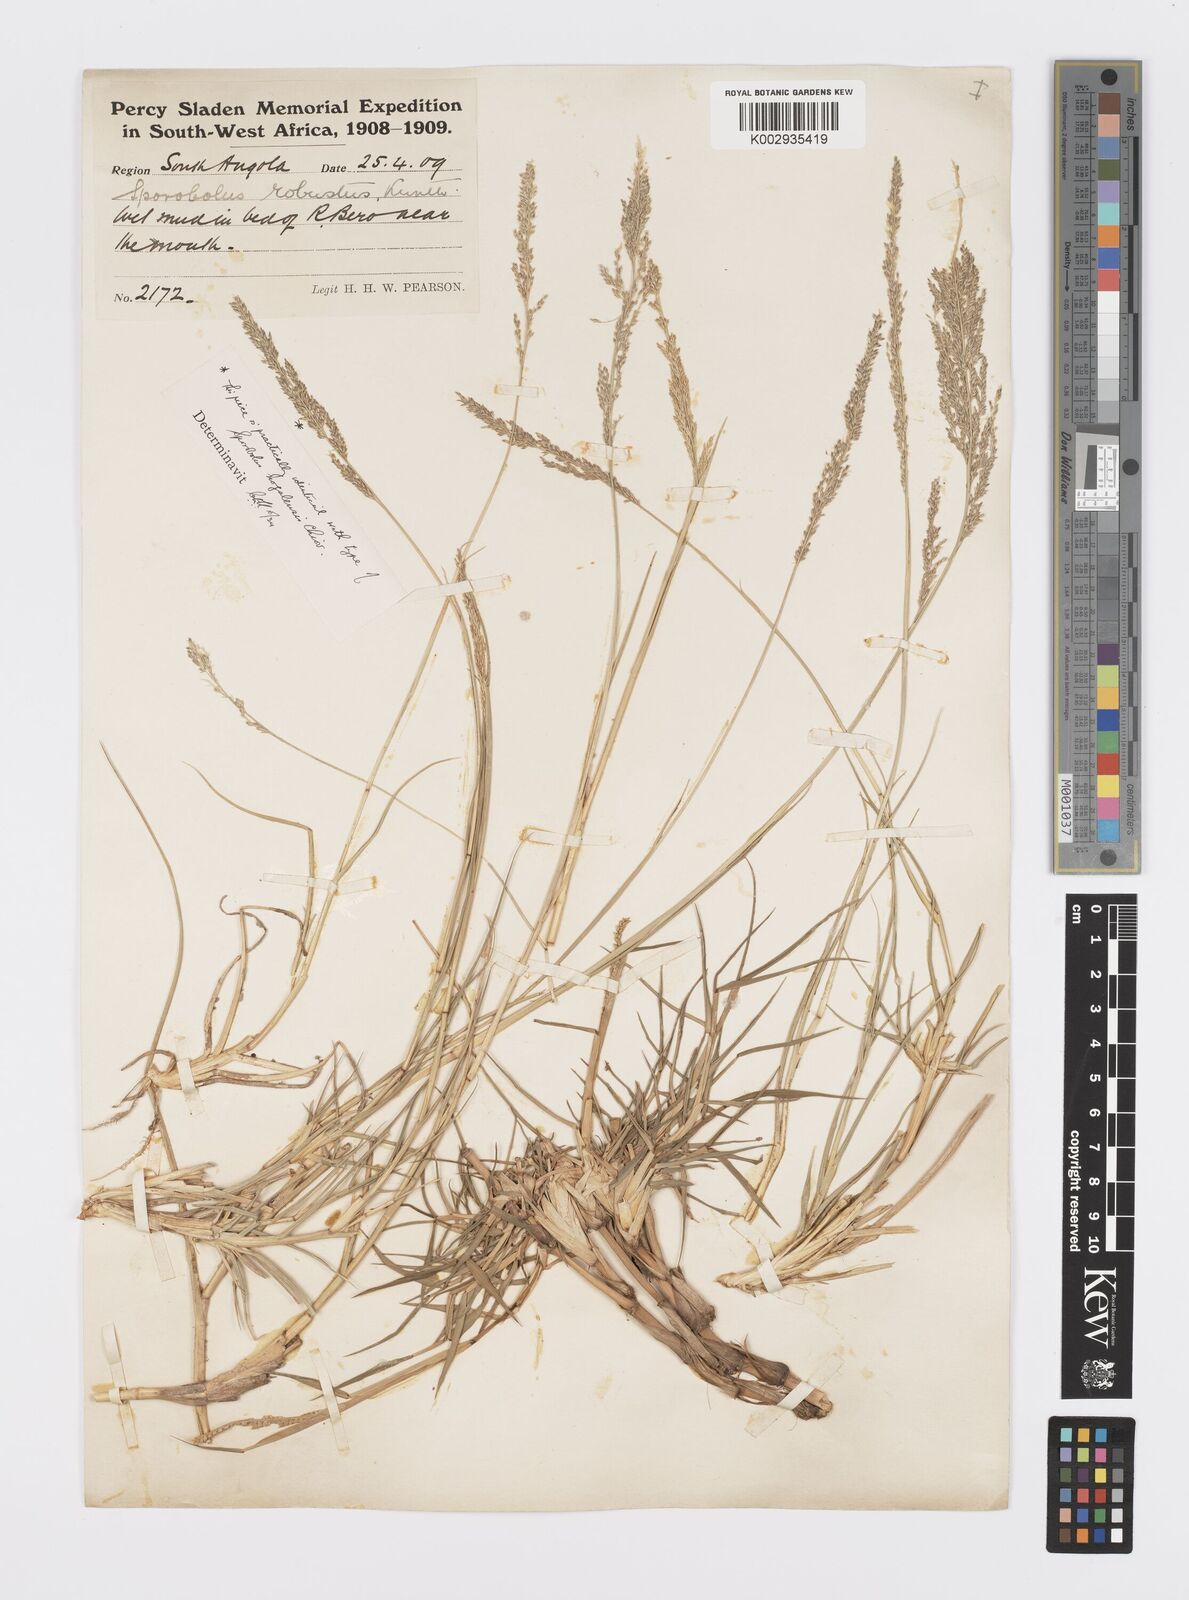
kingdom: Plantae
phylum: Tracheophyta
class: Liliopsida
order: Poales
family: Poaceae
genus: Sporobolus
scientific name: Sporobolus robustus
